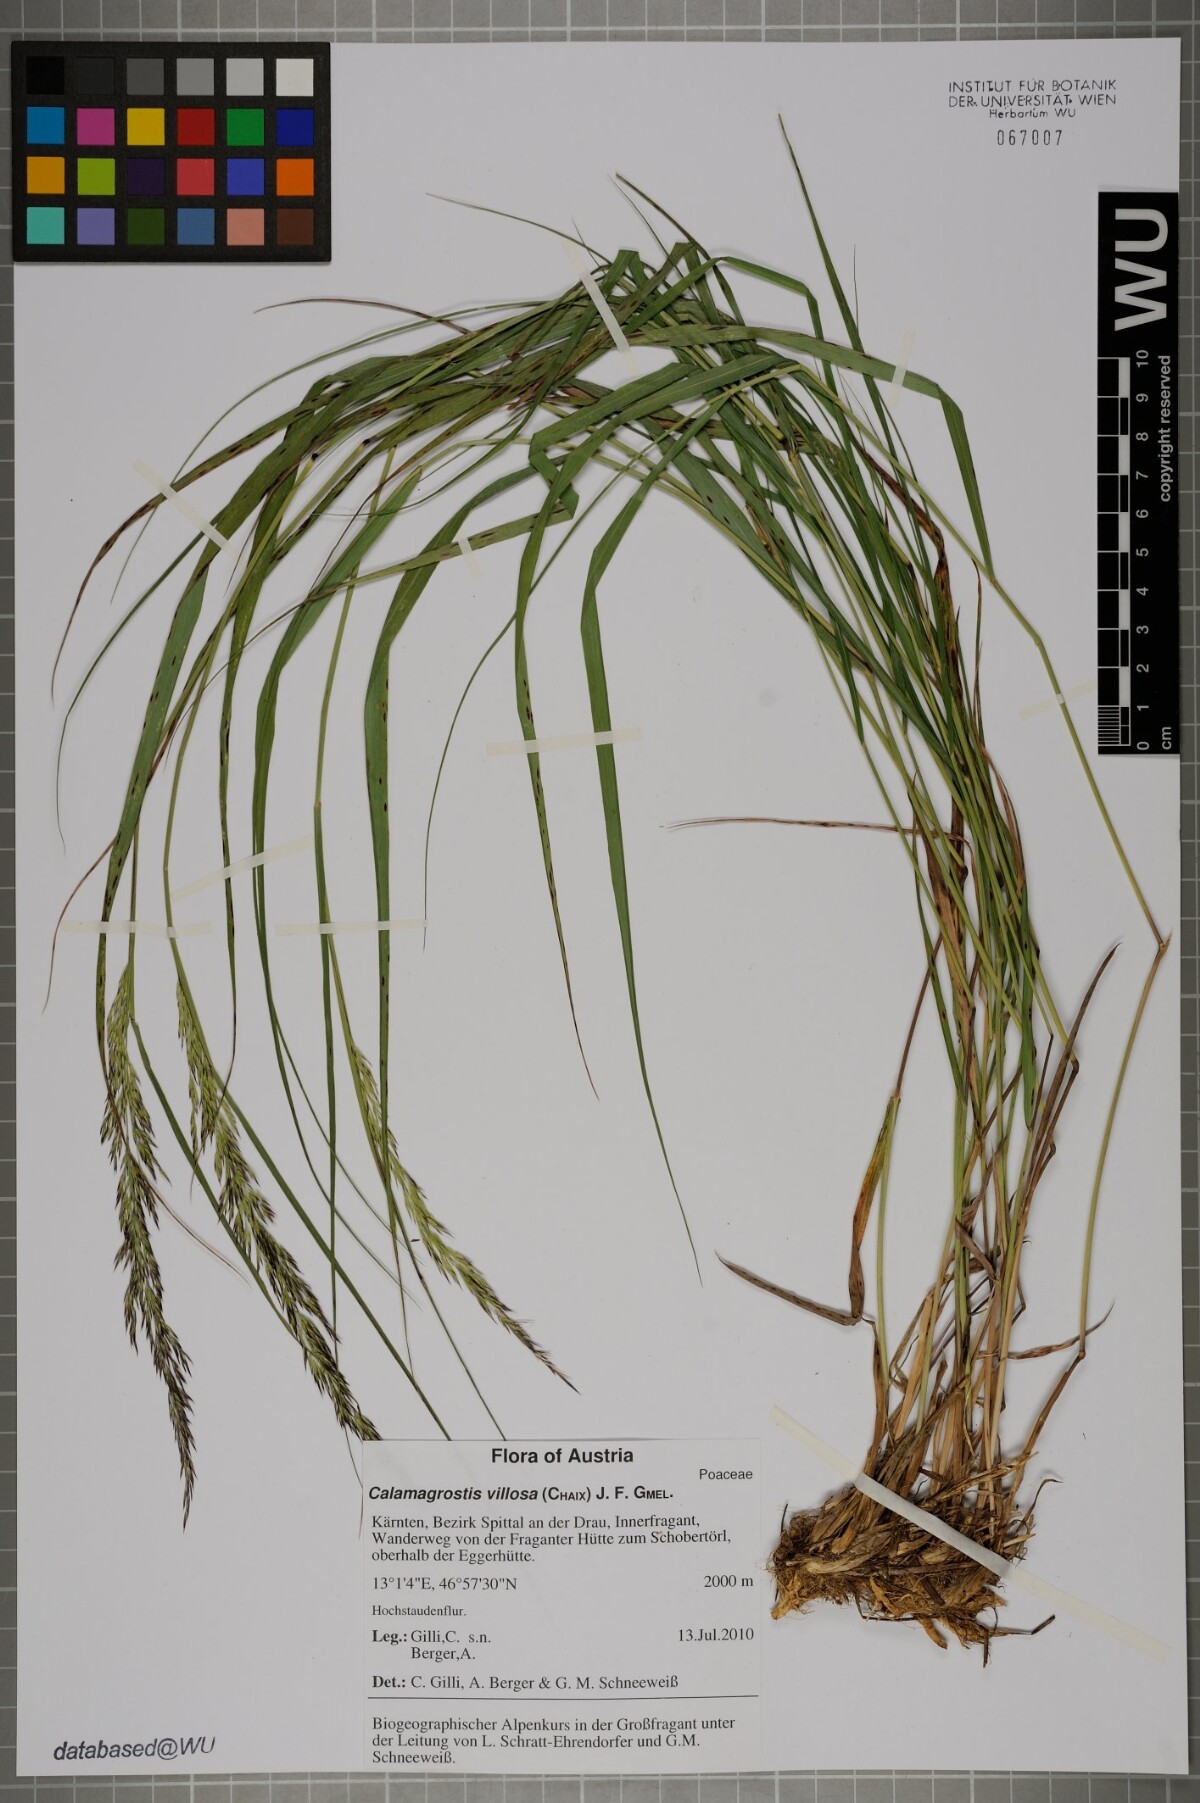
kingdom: Plantae
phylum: Tracheophyta
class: Liliopsida
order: Poales
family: Poaceae
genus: Calamagrostis
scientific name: Calamagrostis villosa
